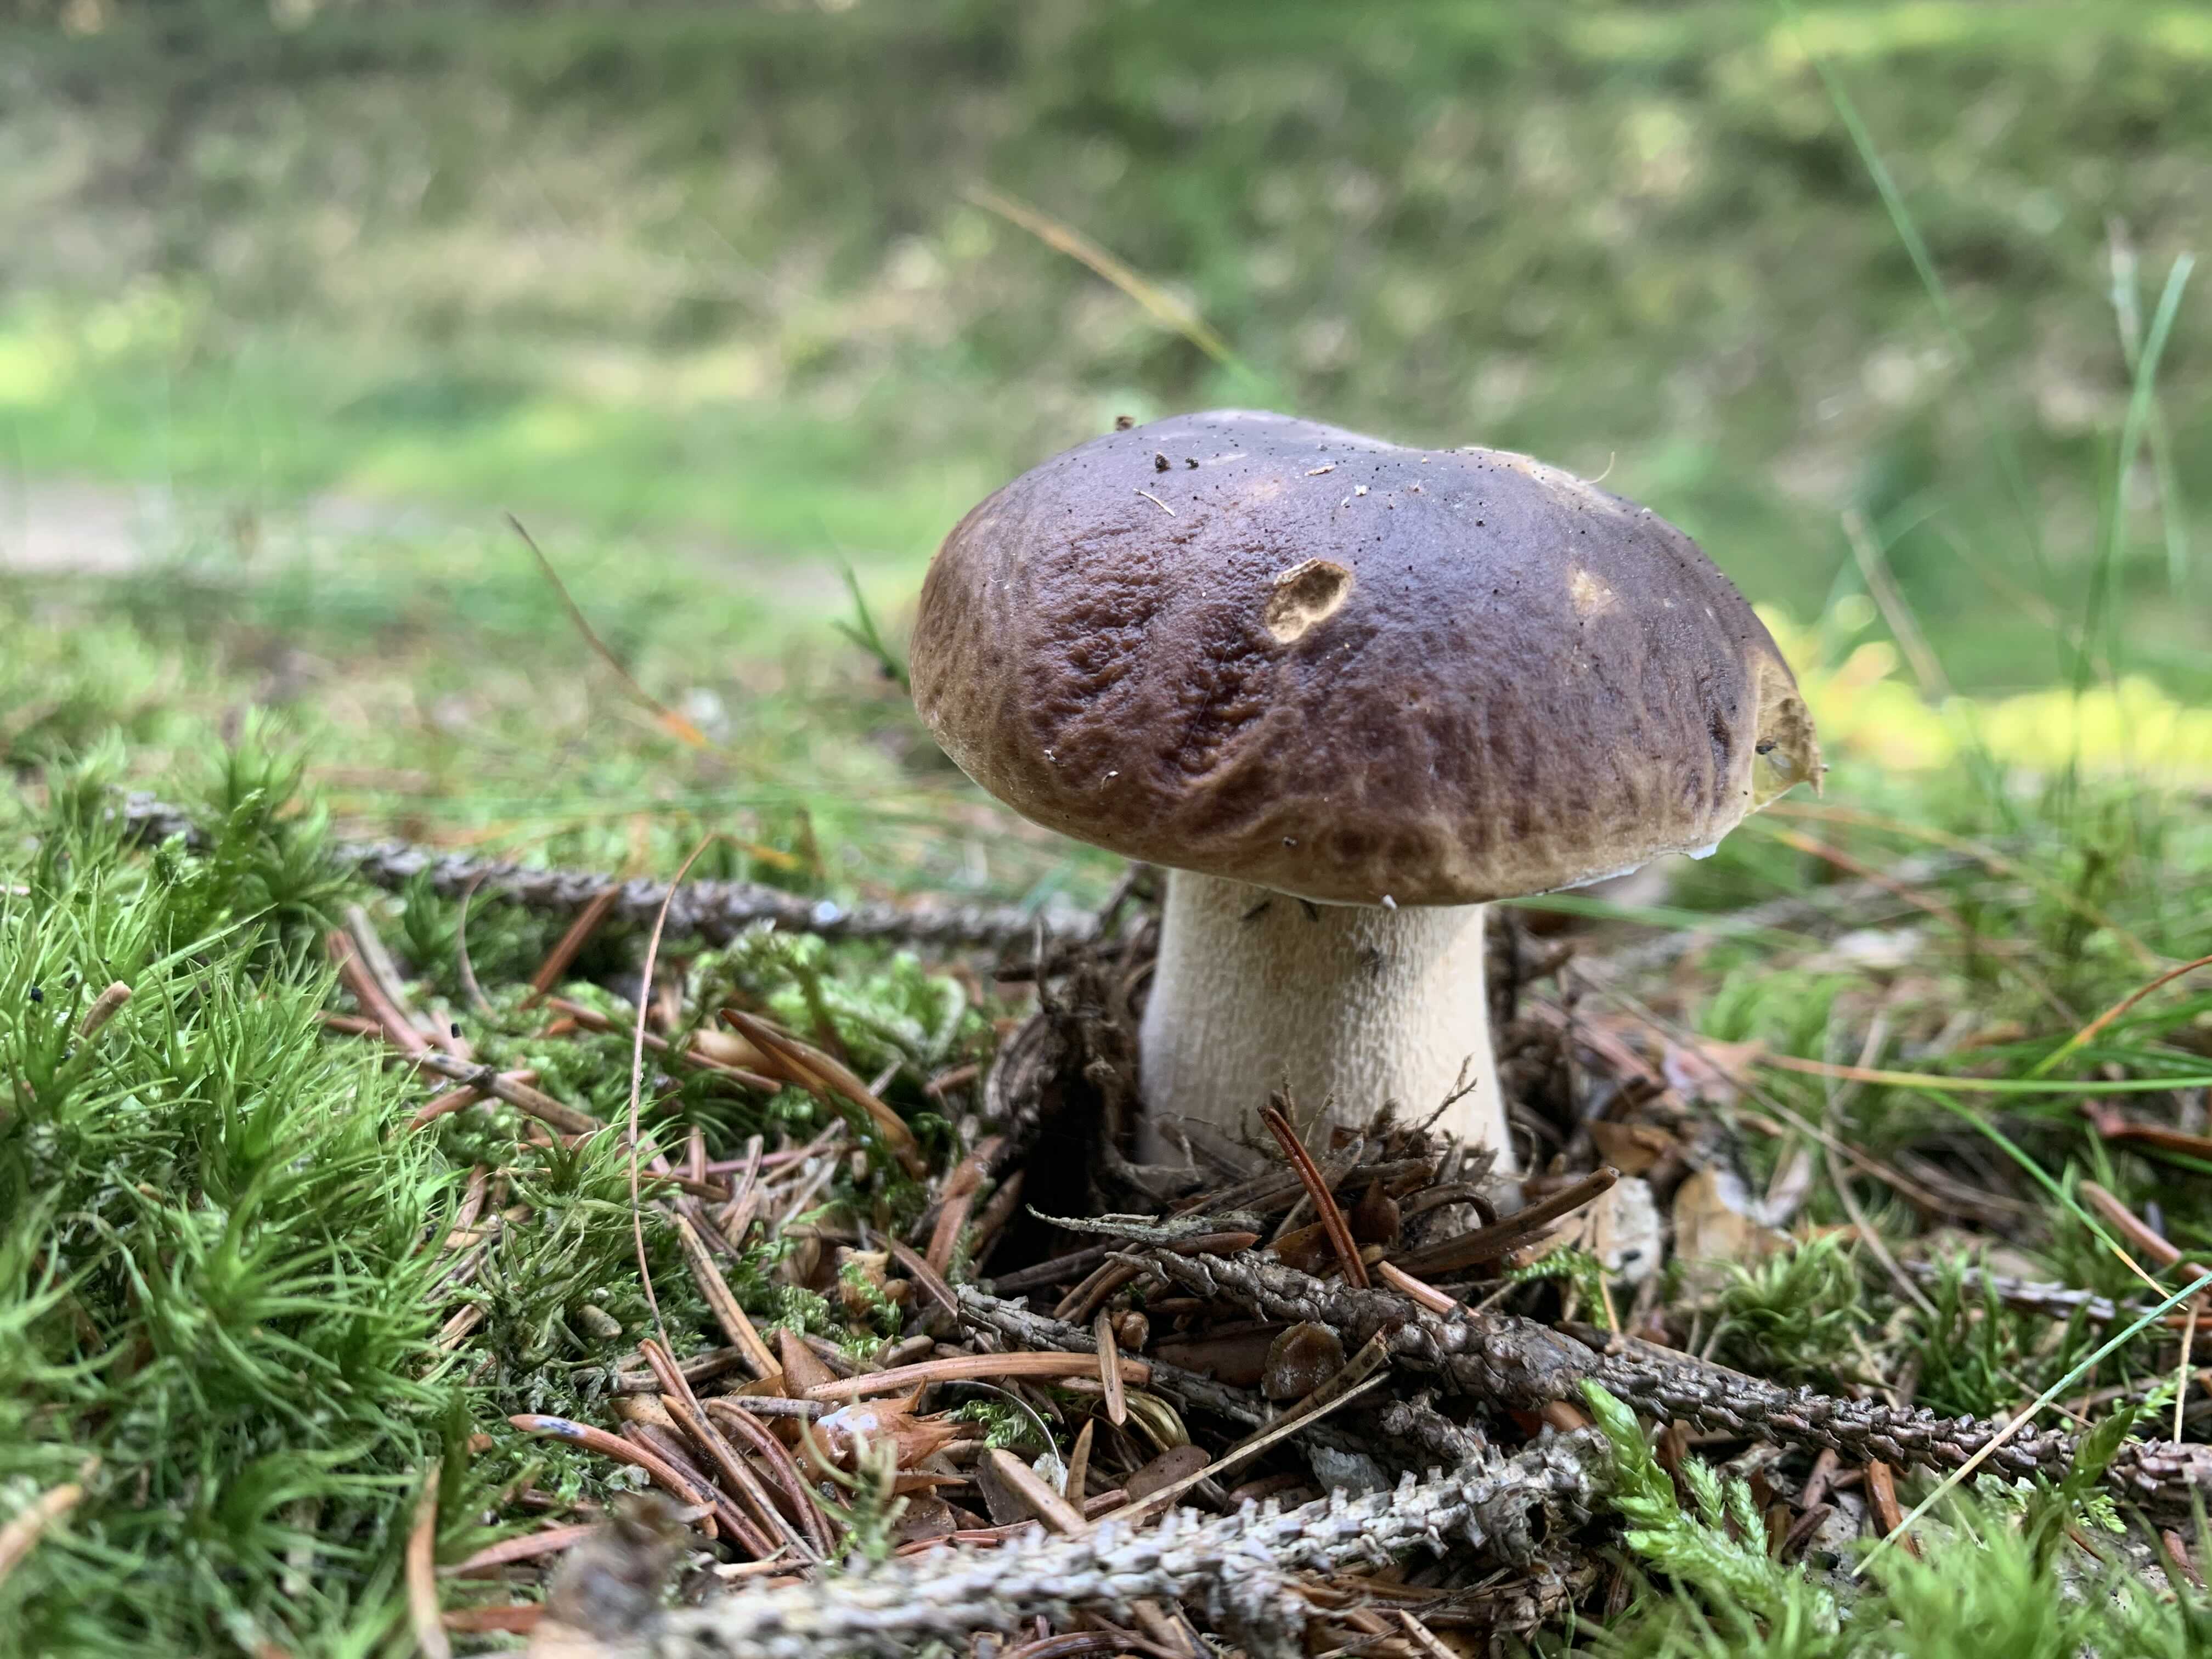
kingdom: Fungi
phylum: Basidiomycota
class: Agaricomycetes
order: Boletales
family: Boletaceae
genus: Boletus
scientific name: Boletus edulis
